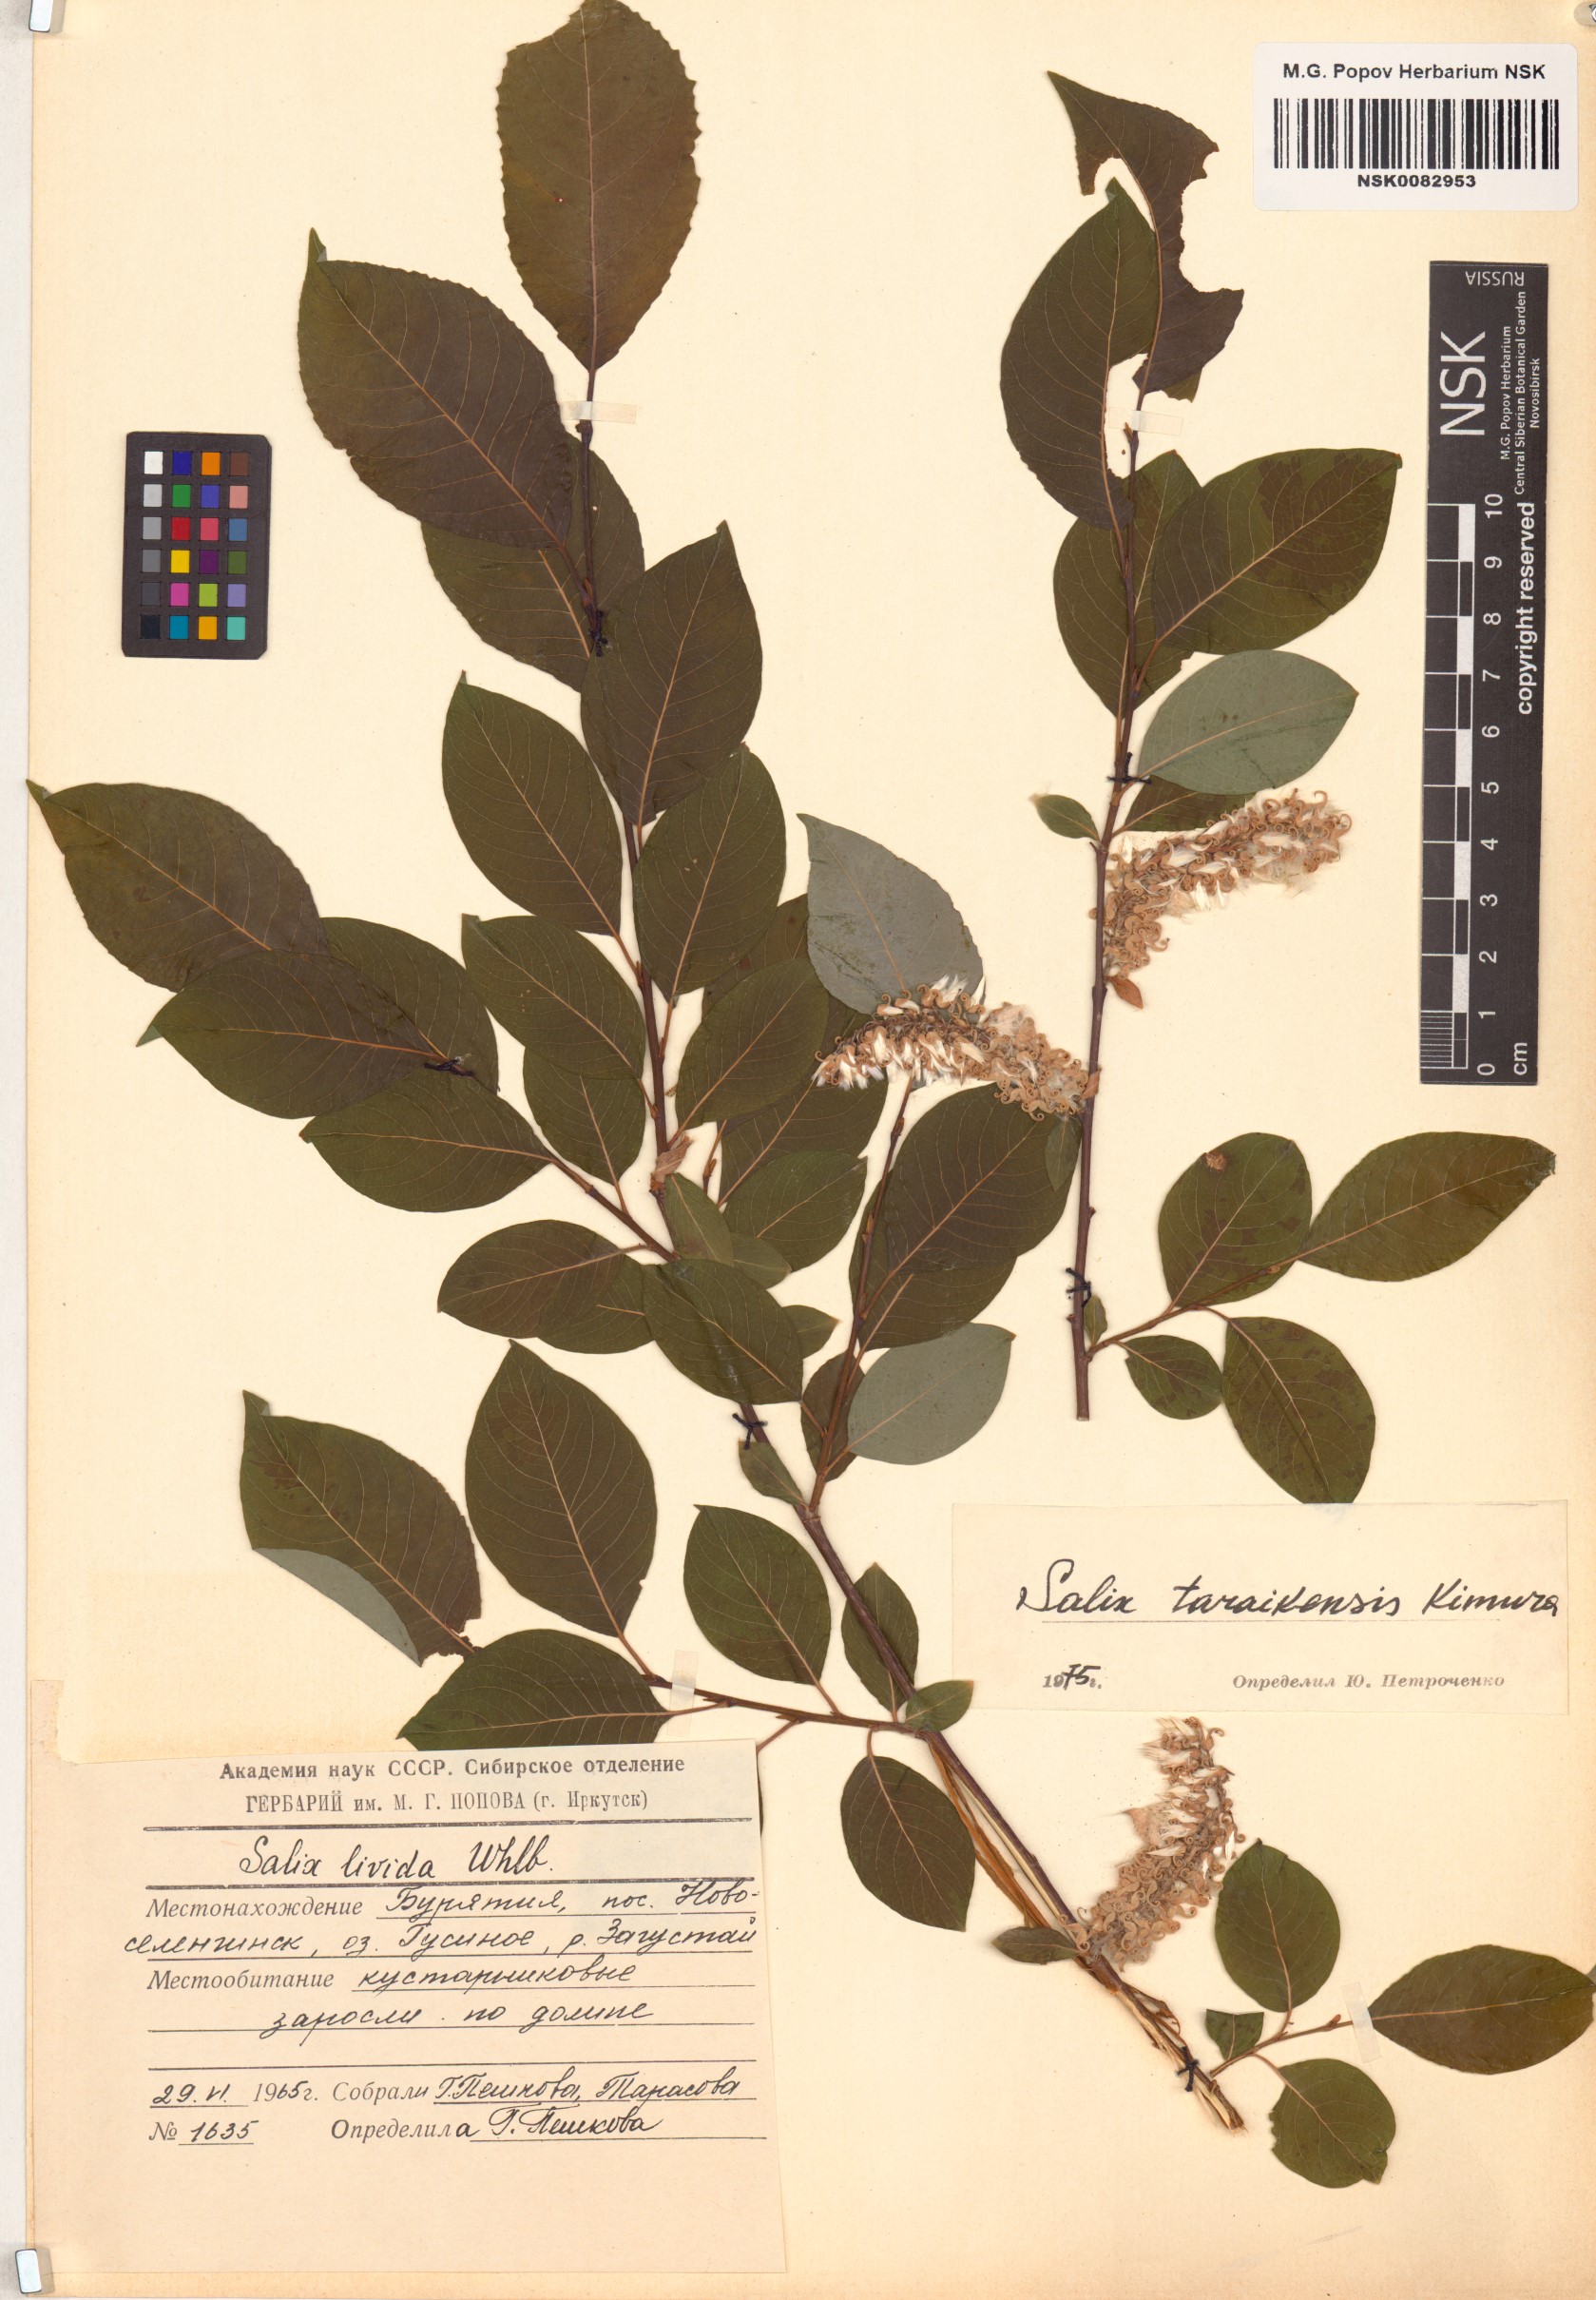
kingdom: Plantae
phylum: Tracheophyta
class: Magnoliopsida
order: Malpighiales
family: Salicaceae
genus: Salix
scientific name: Salix taraikensis
